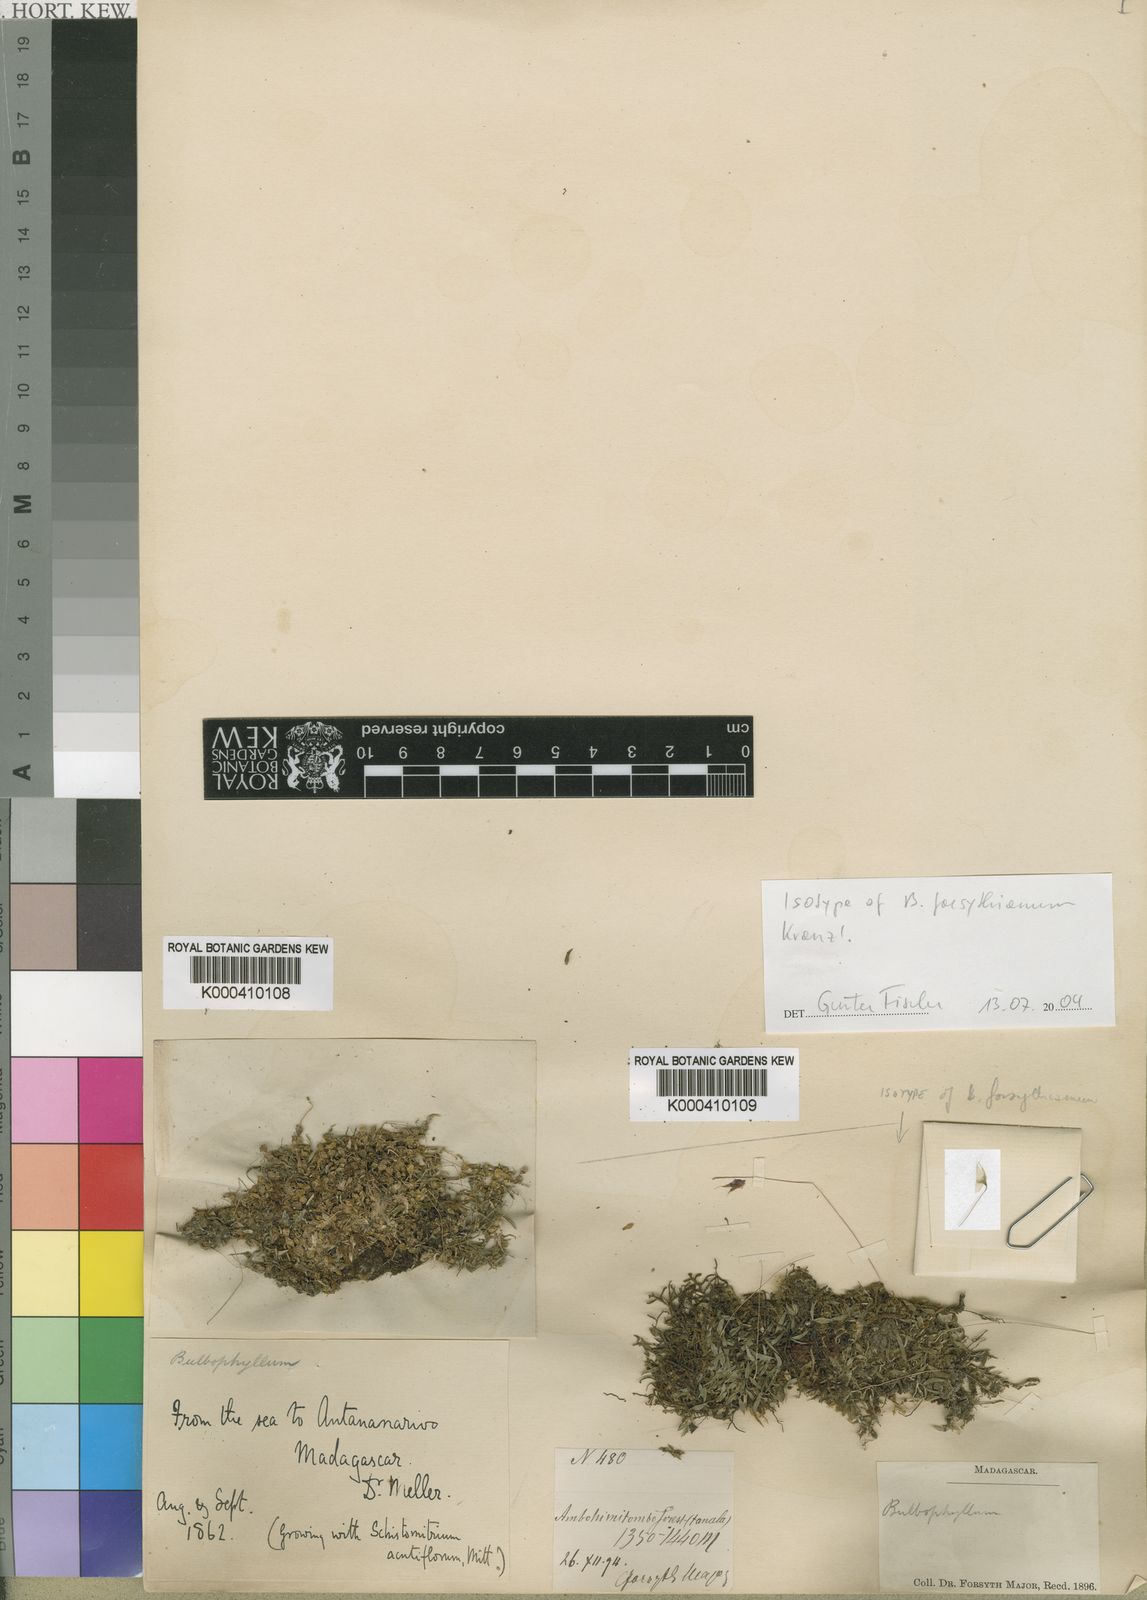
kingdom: Plantae
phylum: Tracheophyta
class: Liliopsida
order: Asparagales
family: Orchidaceae
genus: Bulbophyllum
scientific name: Bulbophyllum forsythianum
